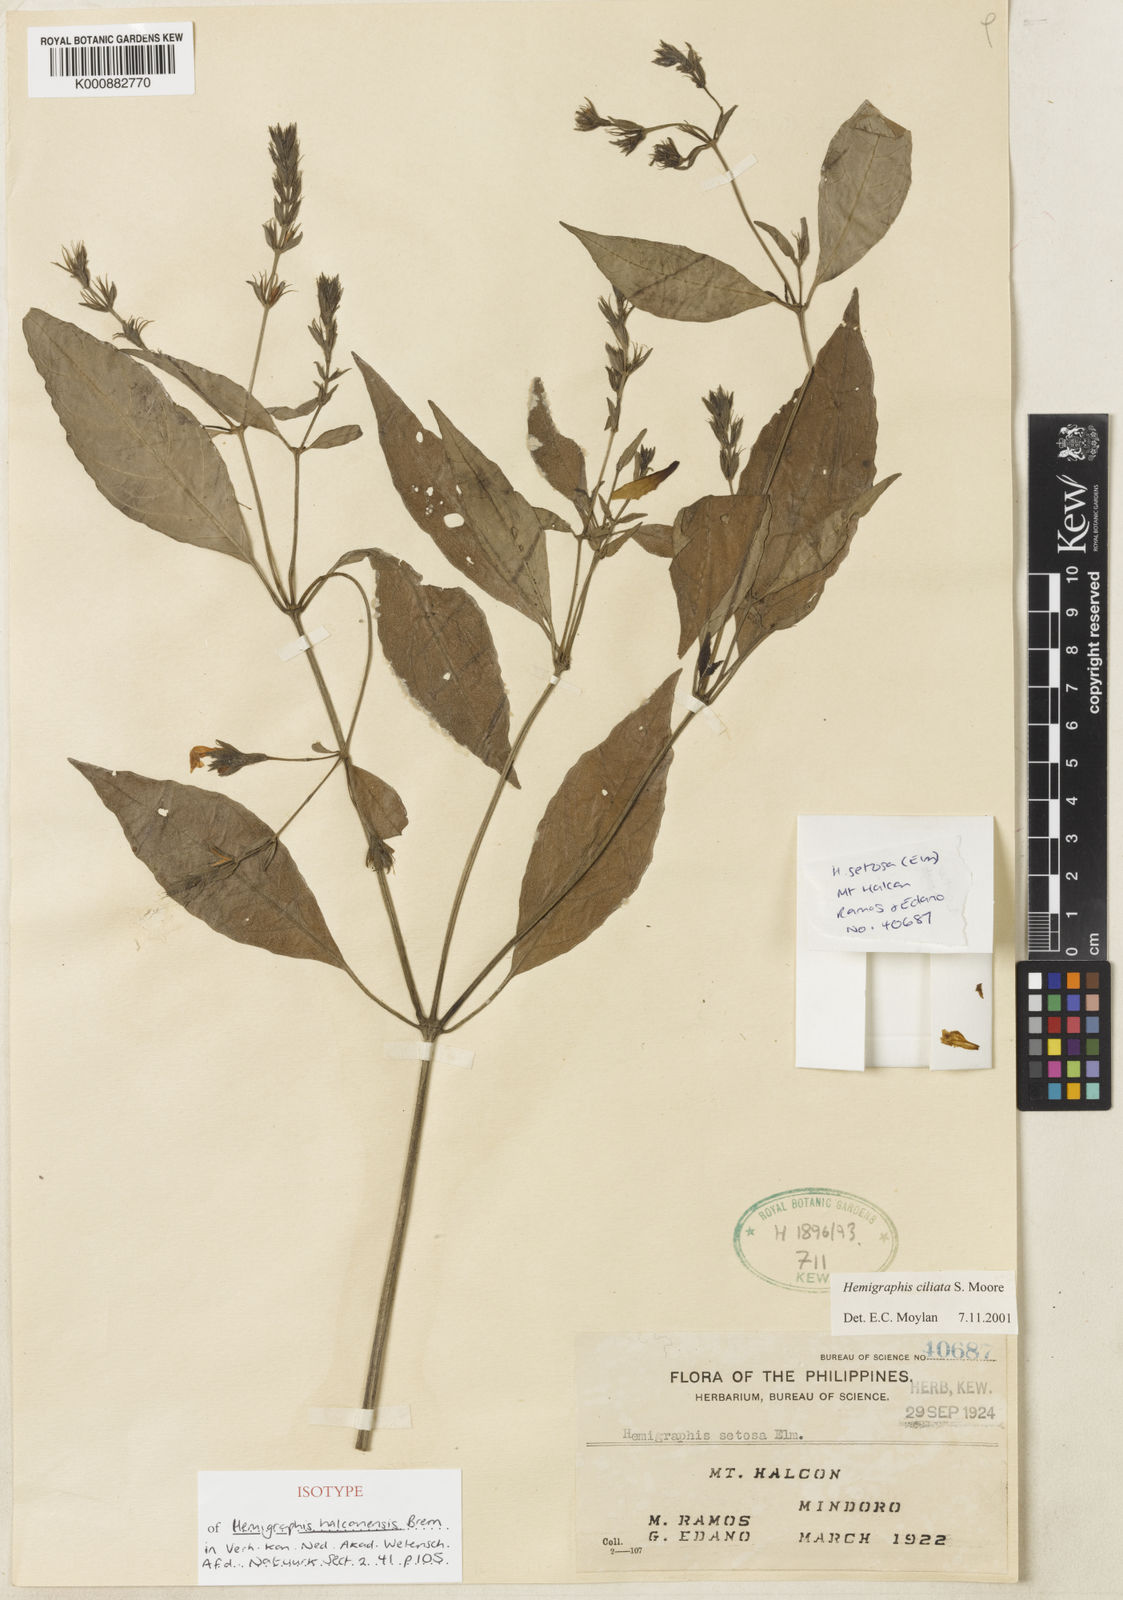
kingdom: Plantae
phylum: Tracheophyta
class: Magnoliopsida
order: Lamiales
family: Acanthaceae
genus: Strobilanthes
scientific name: Strobilanthes linearifolia
